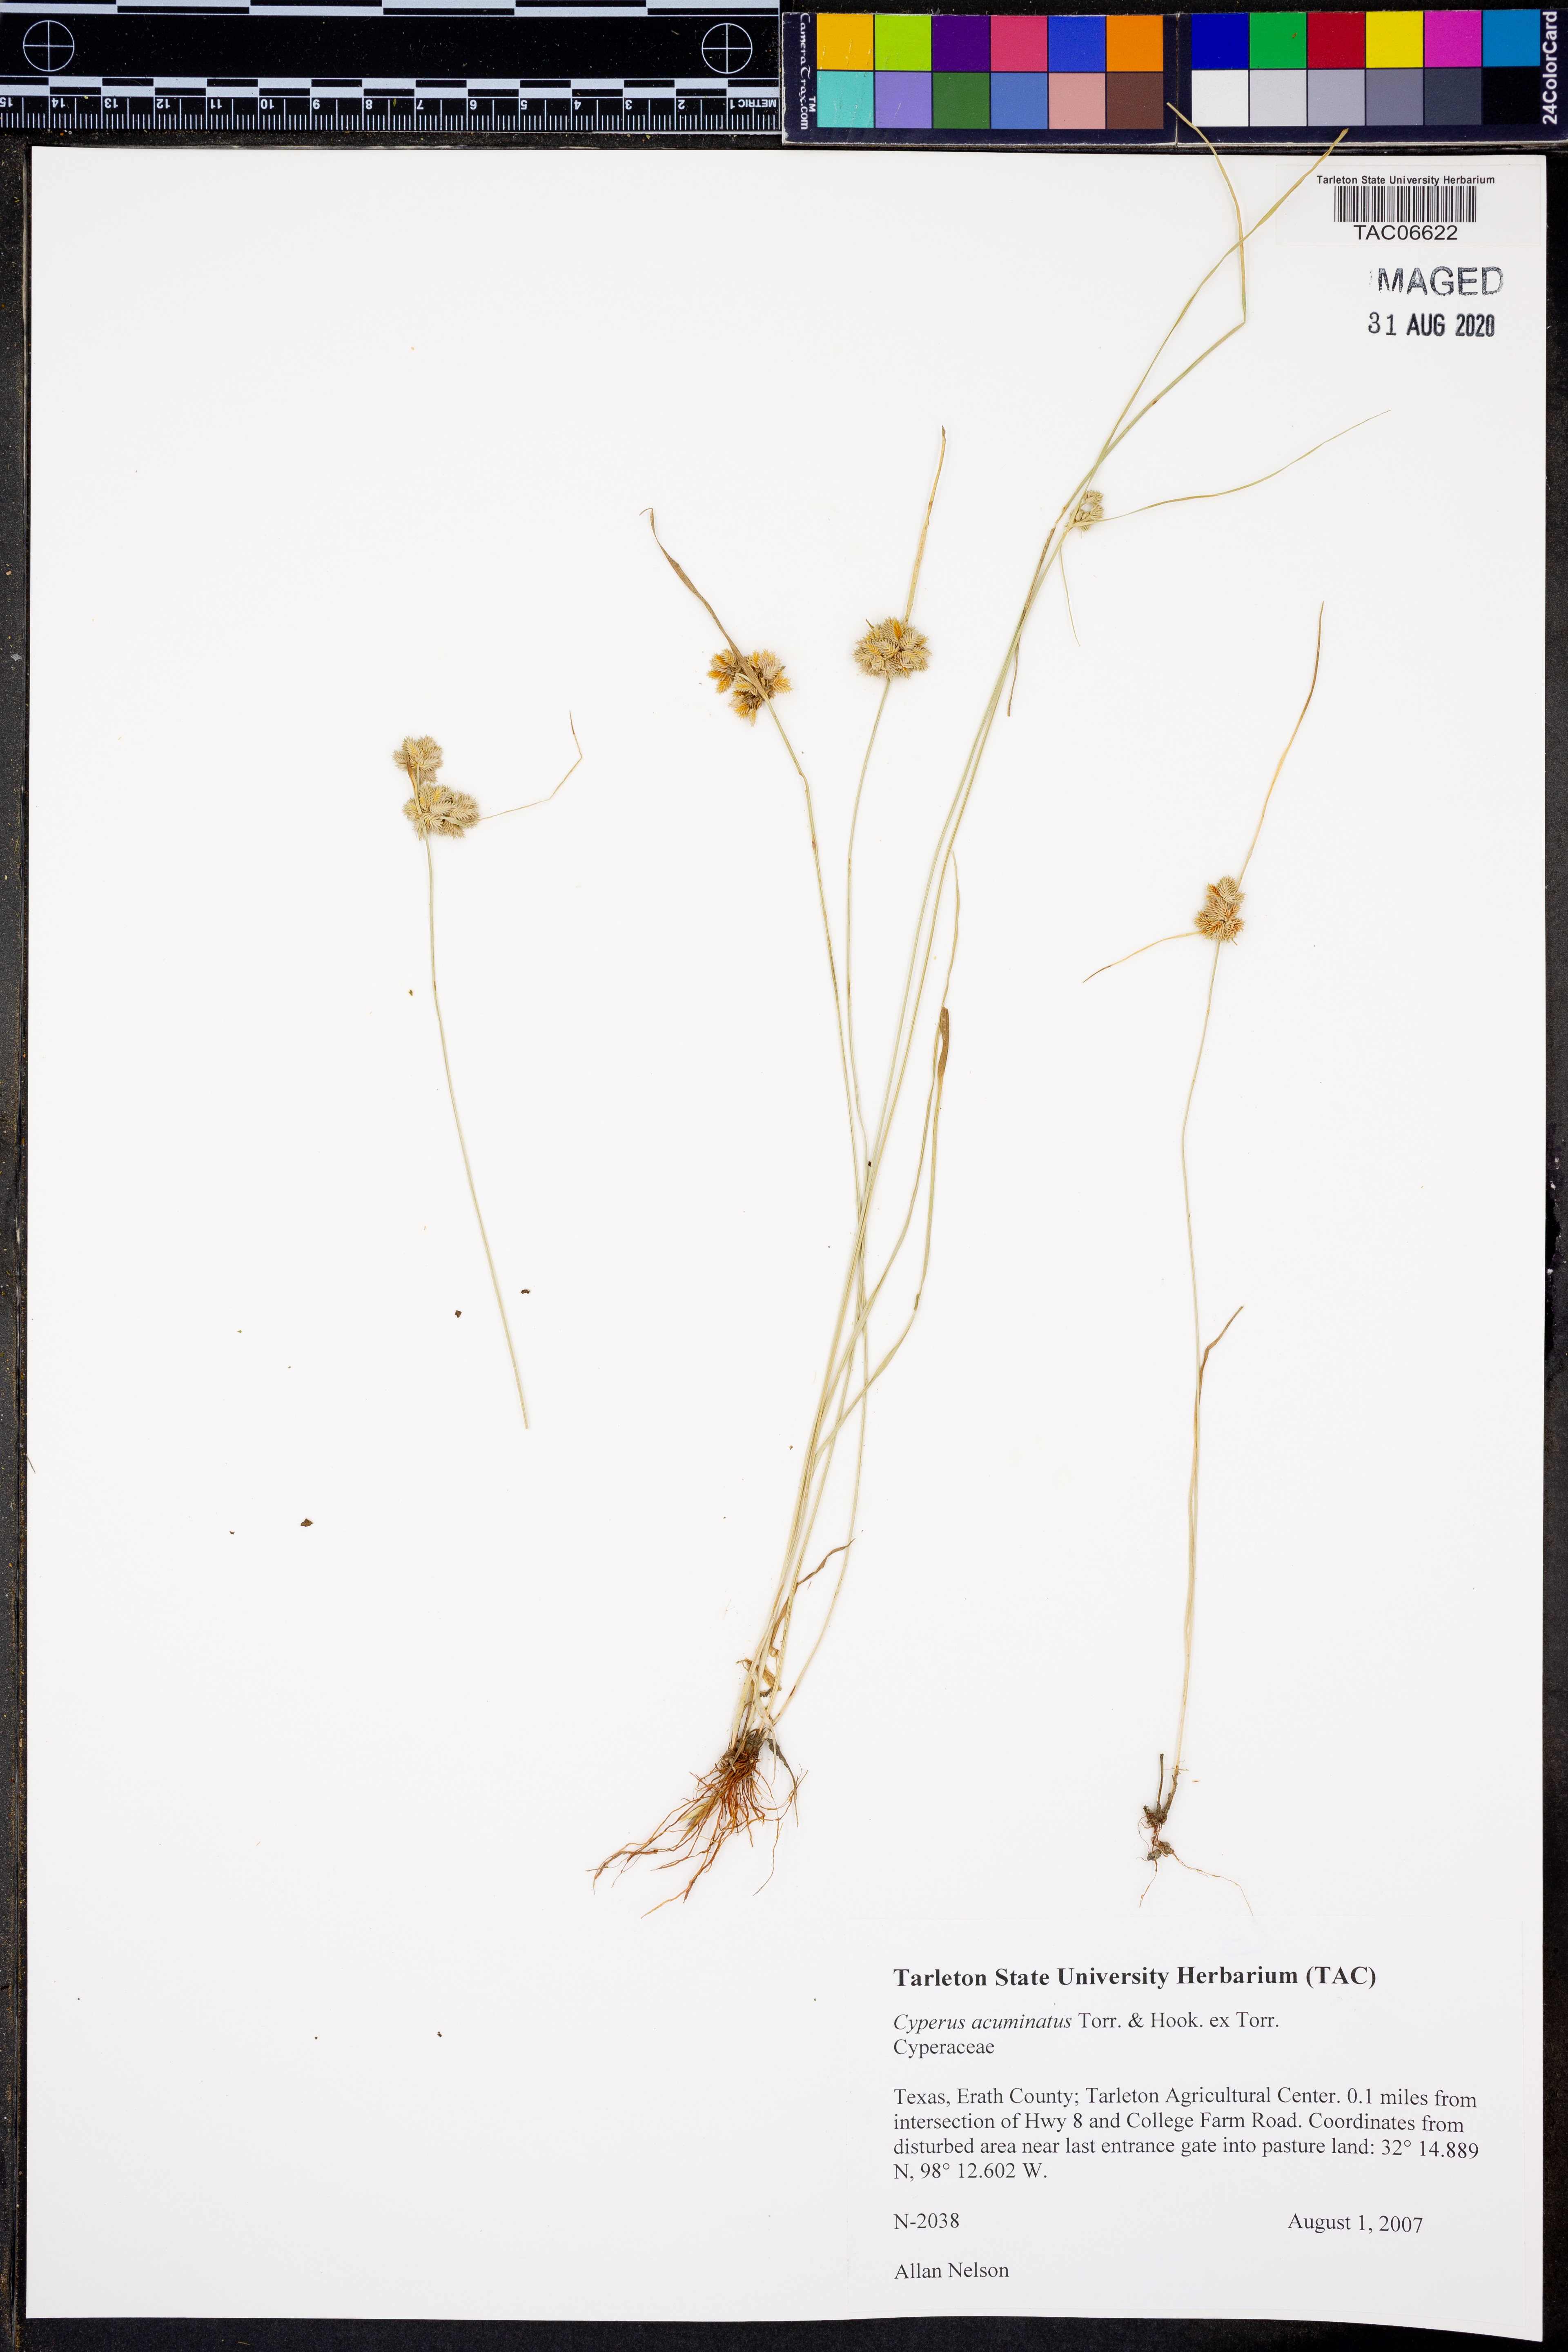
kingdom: Plantae
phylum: Tracheophyta
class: Liliopsida
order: Poales
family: Cyperaceae
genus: Cyperus
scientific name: Cyperus acuminatus
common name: Short-pointed cyperus
